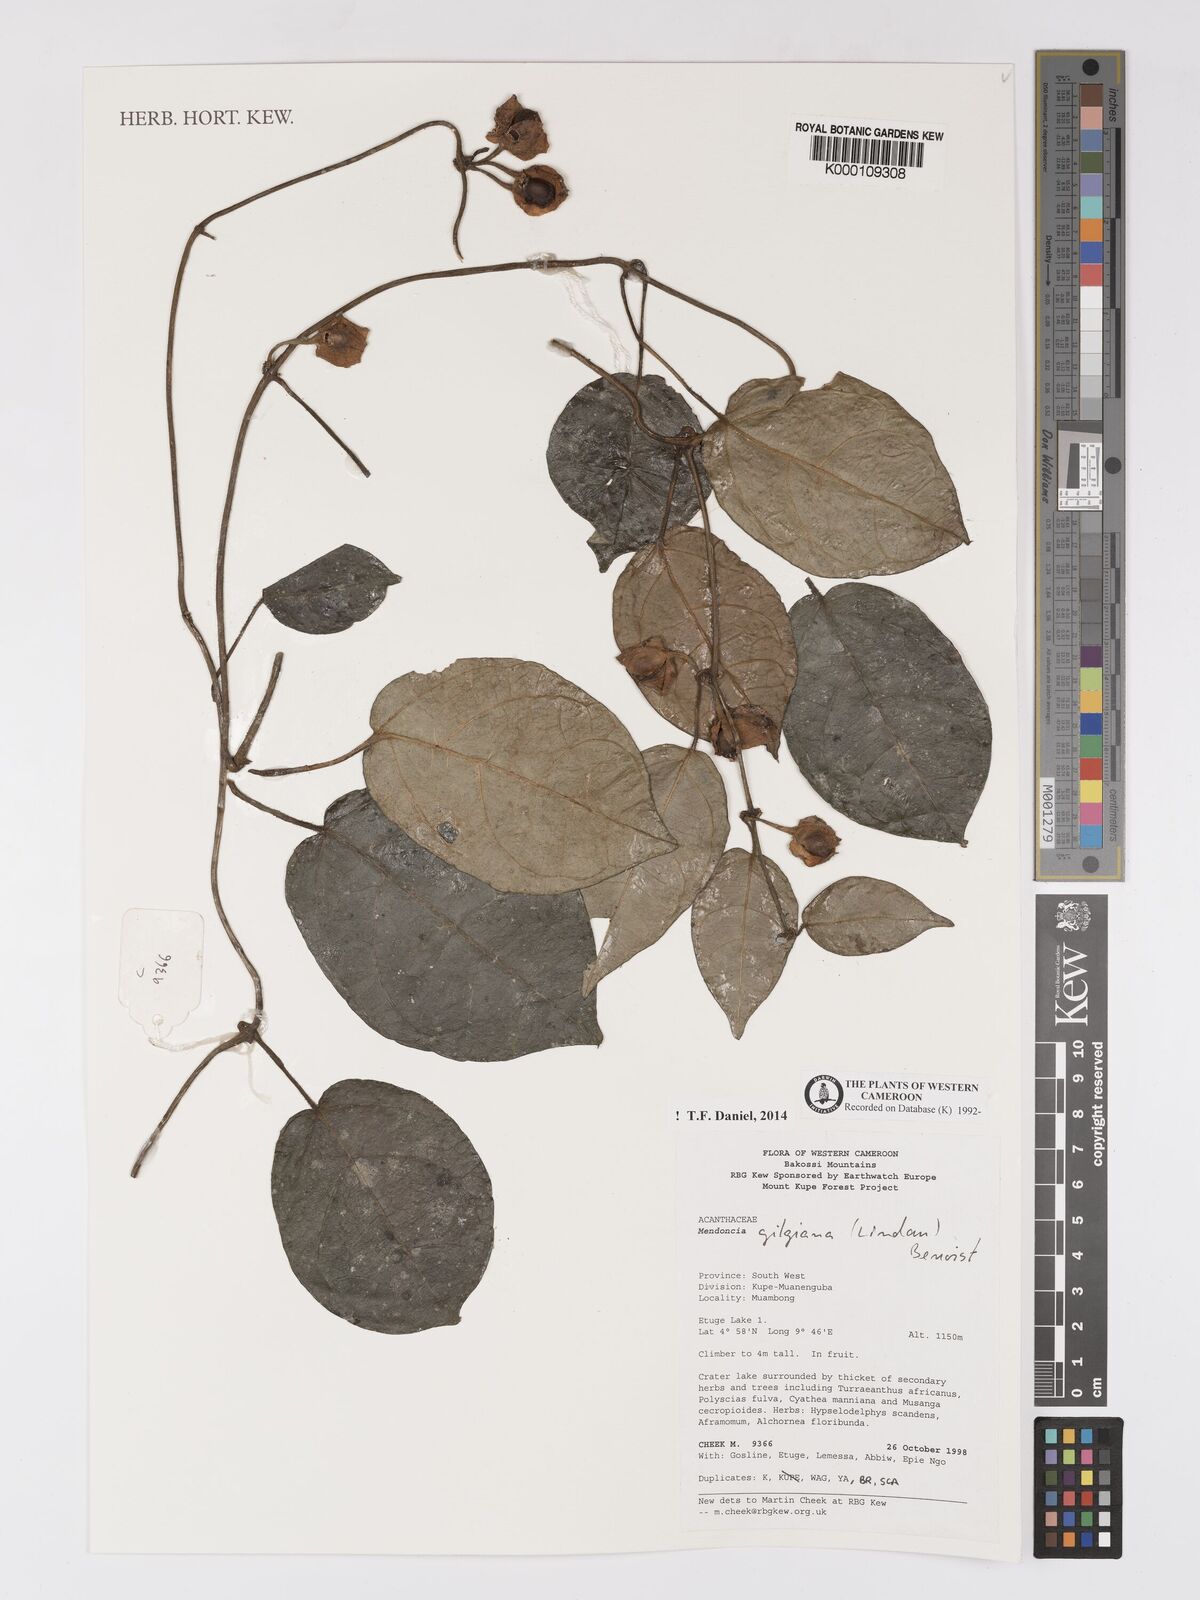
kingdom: Plantae
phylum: Tracheophyta
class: Magnoliopsida
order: Lamiales
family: Acanthaceae
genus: Mendoncia
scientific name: Mendoncia gilgiana
